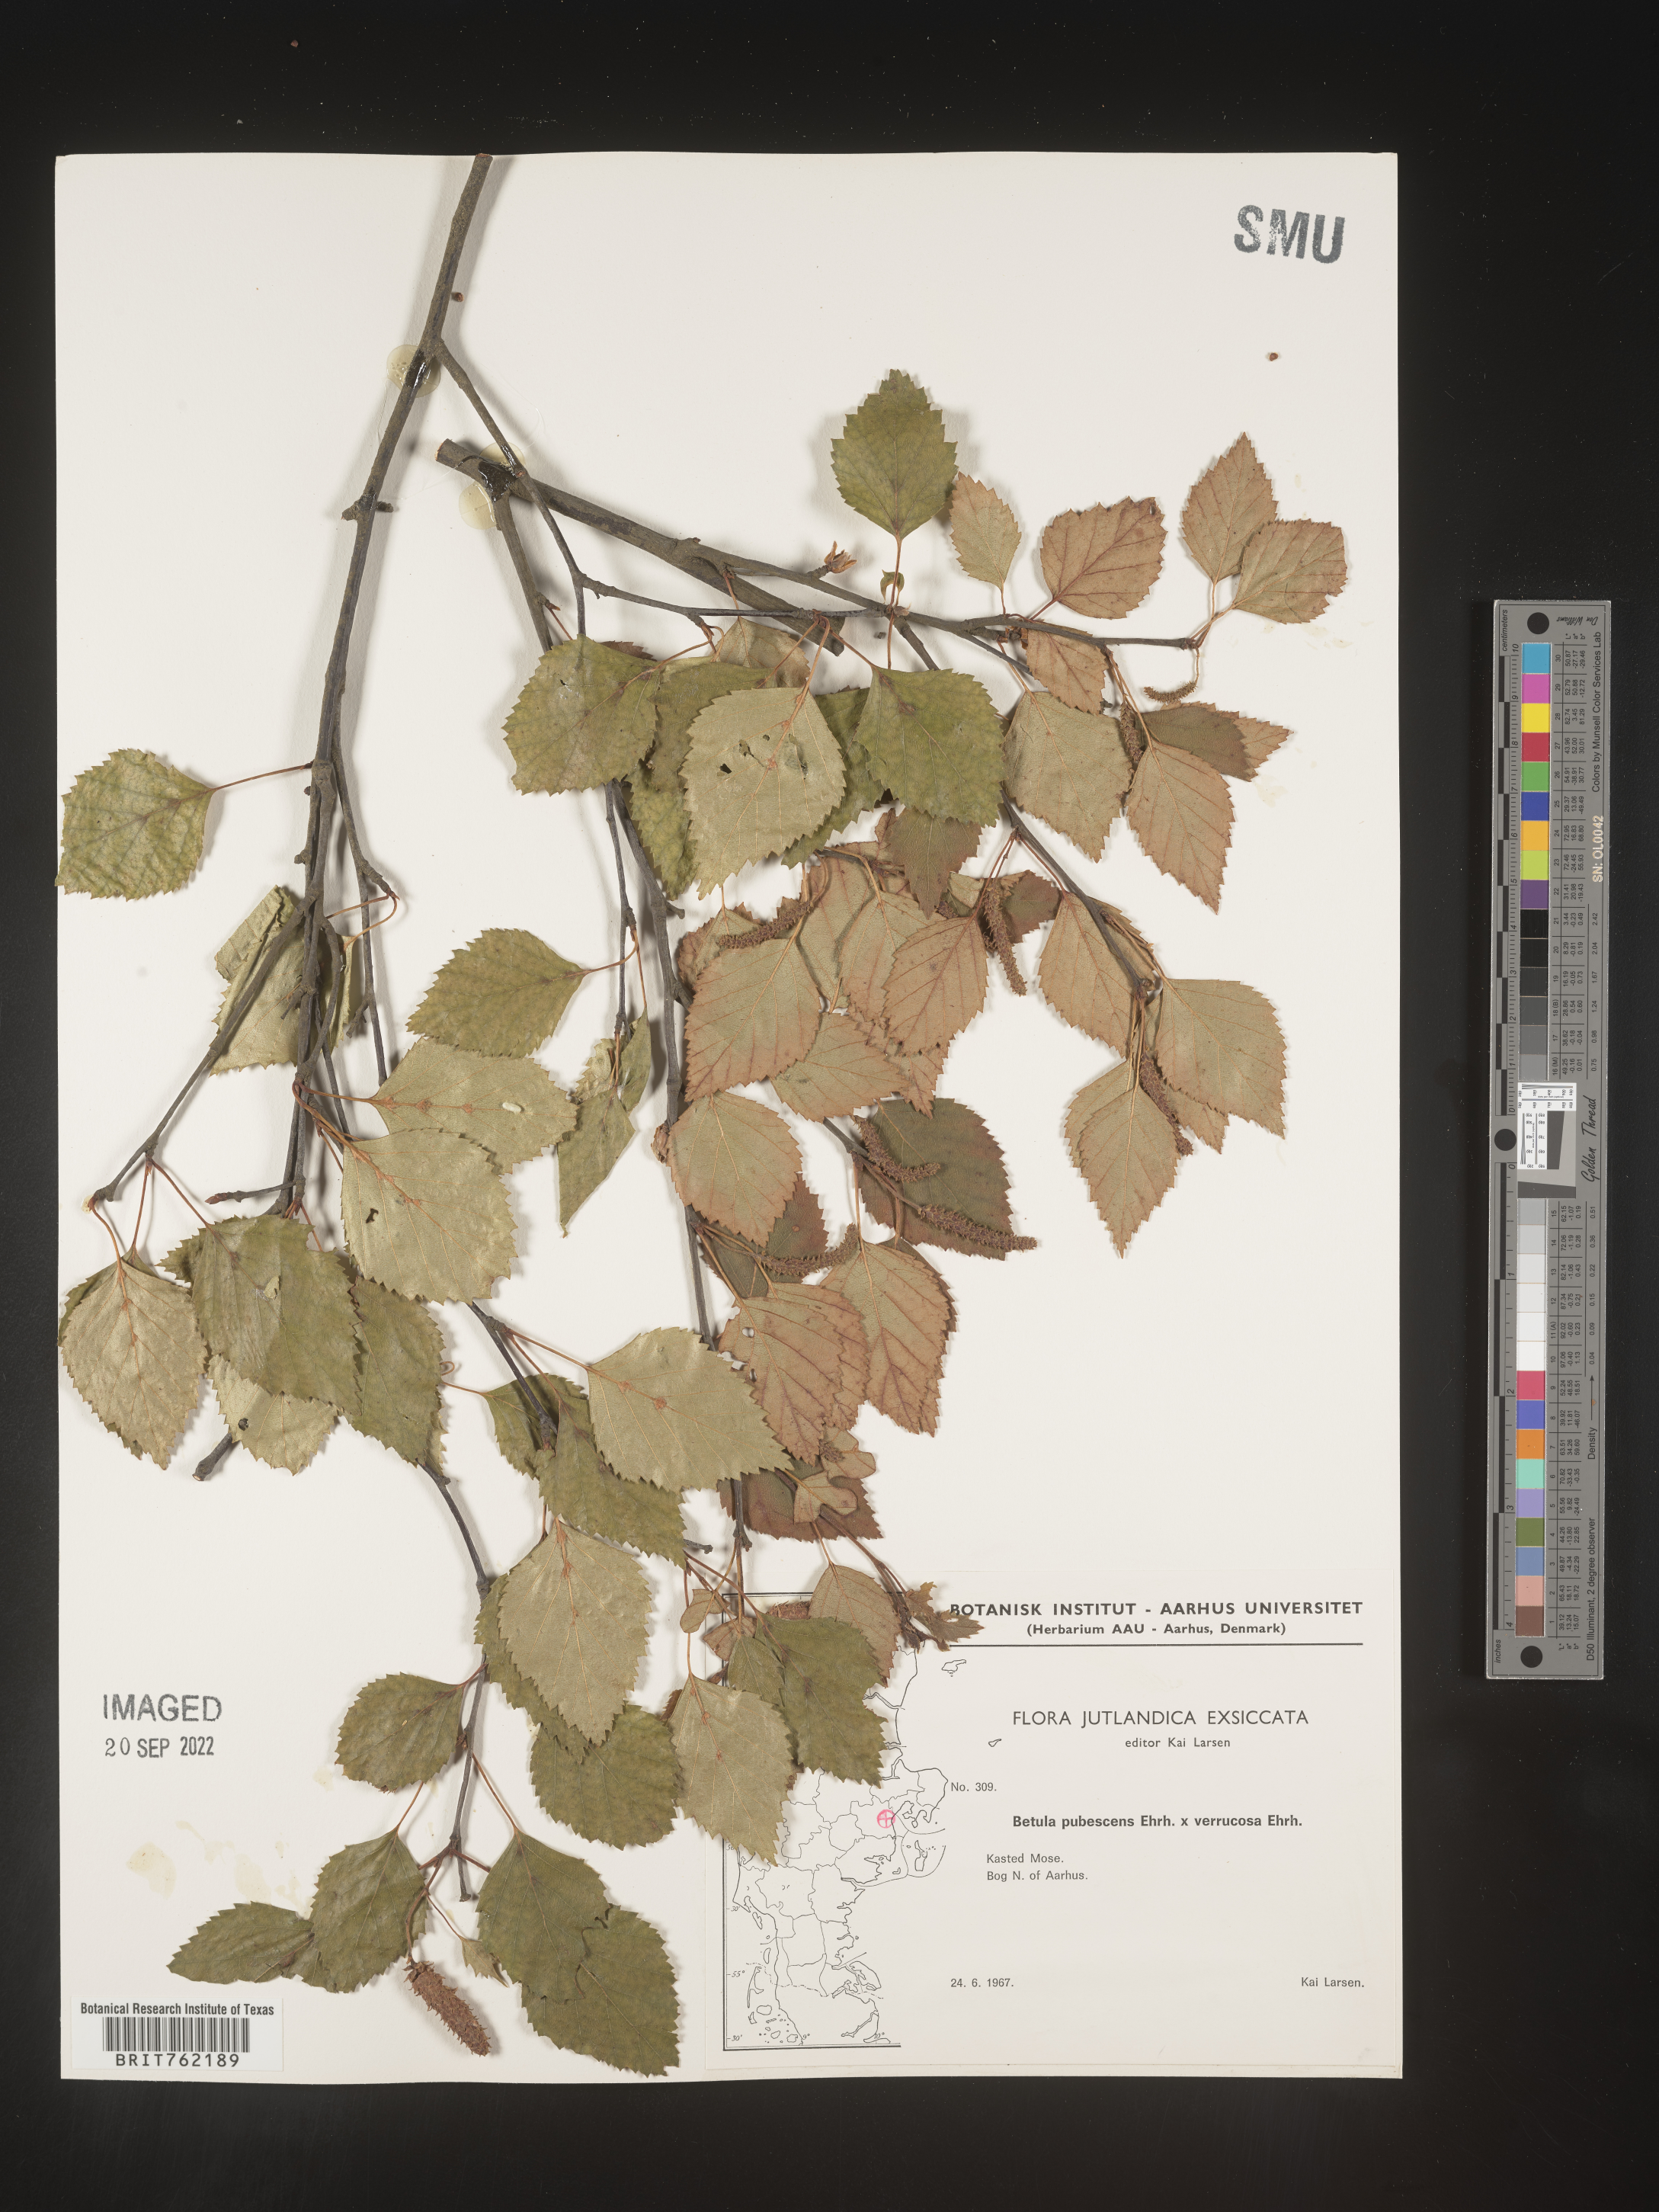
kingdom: Plantae
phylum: Tracheophyta
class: Magnoliopsida
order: Fagales
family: Betulaceae
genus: Betula
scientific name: Betula
